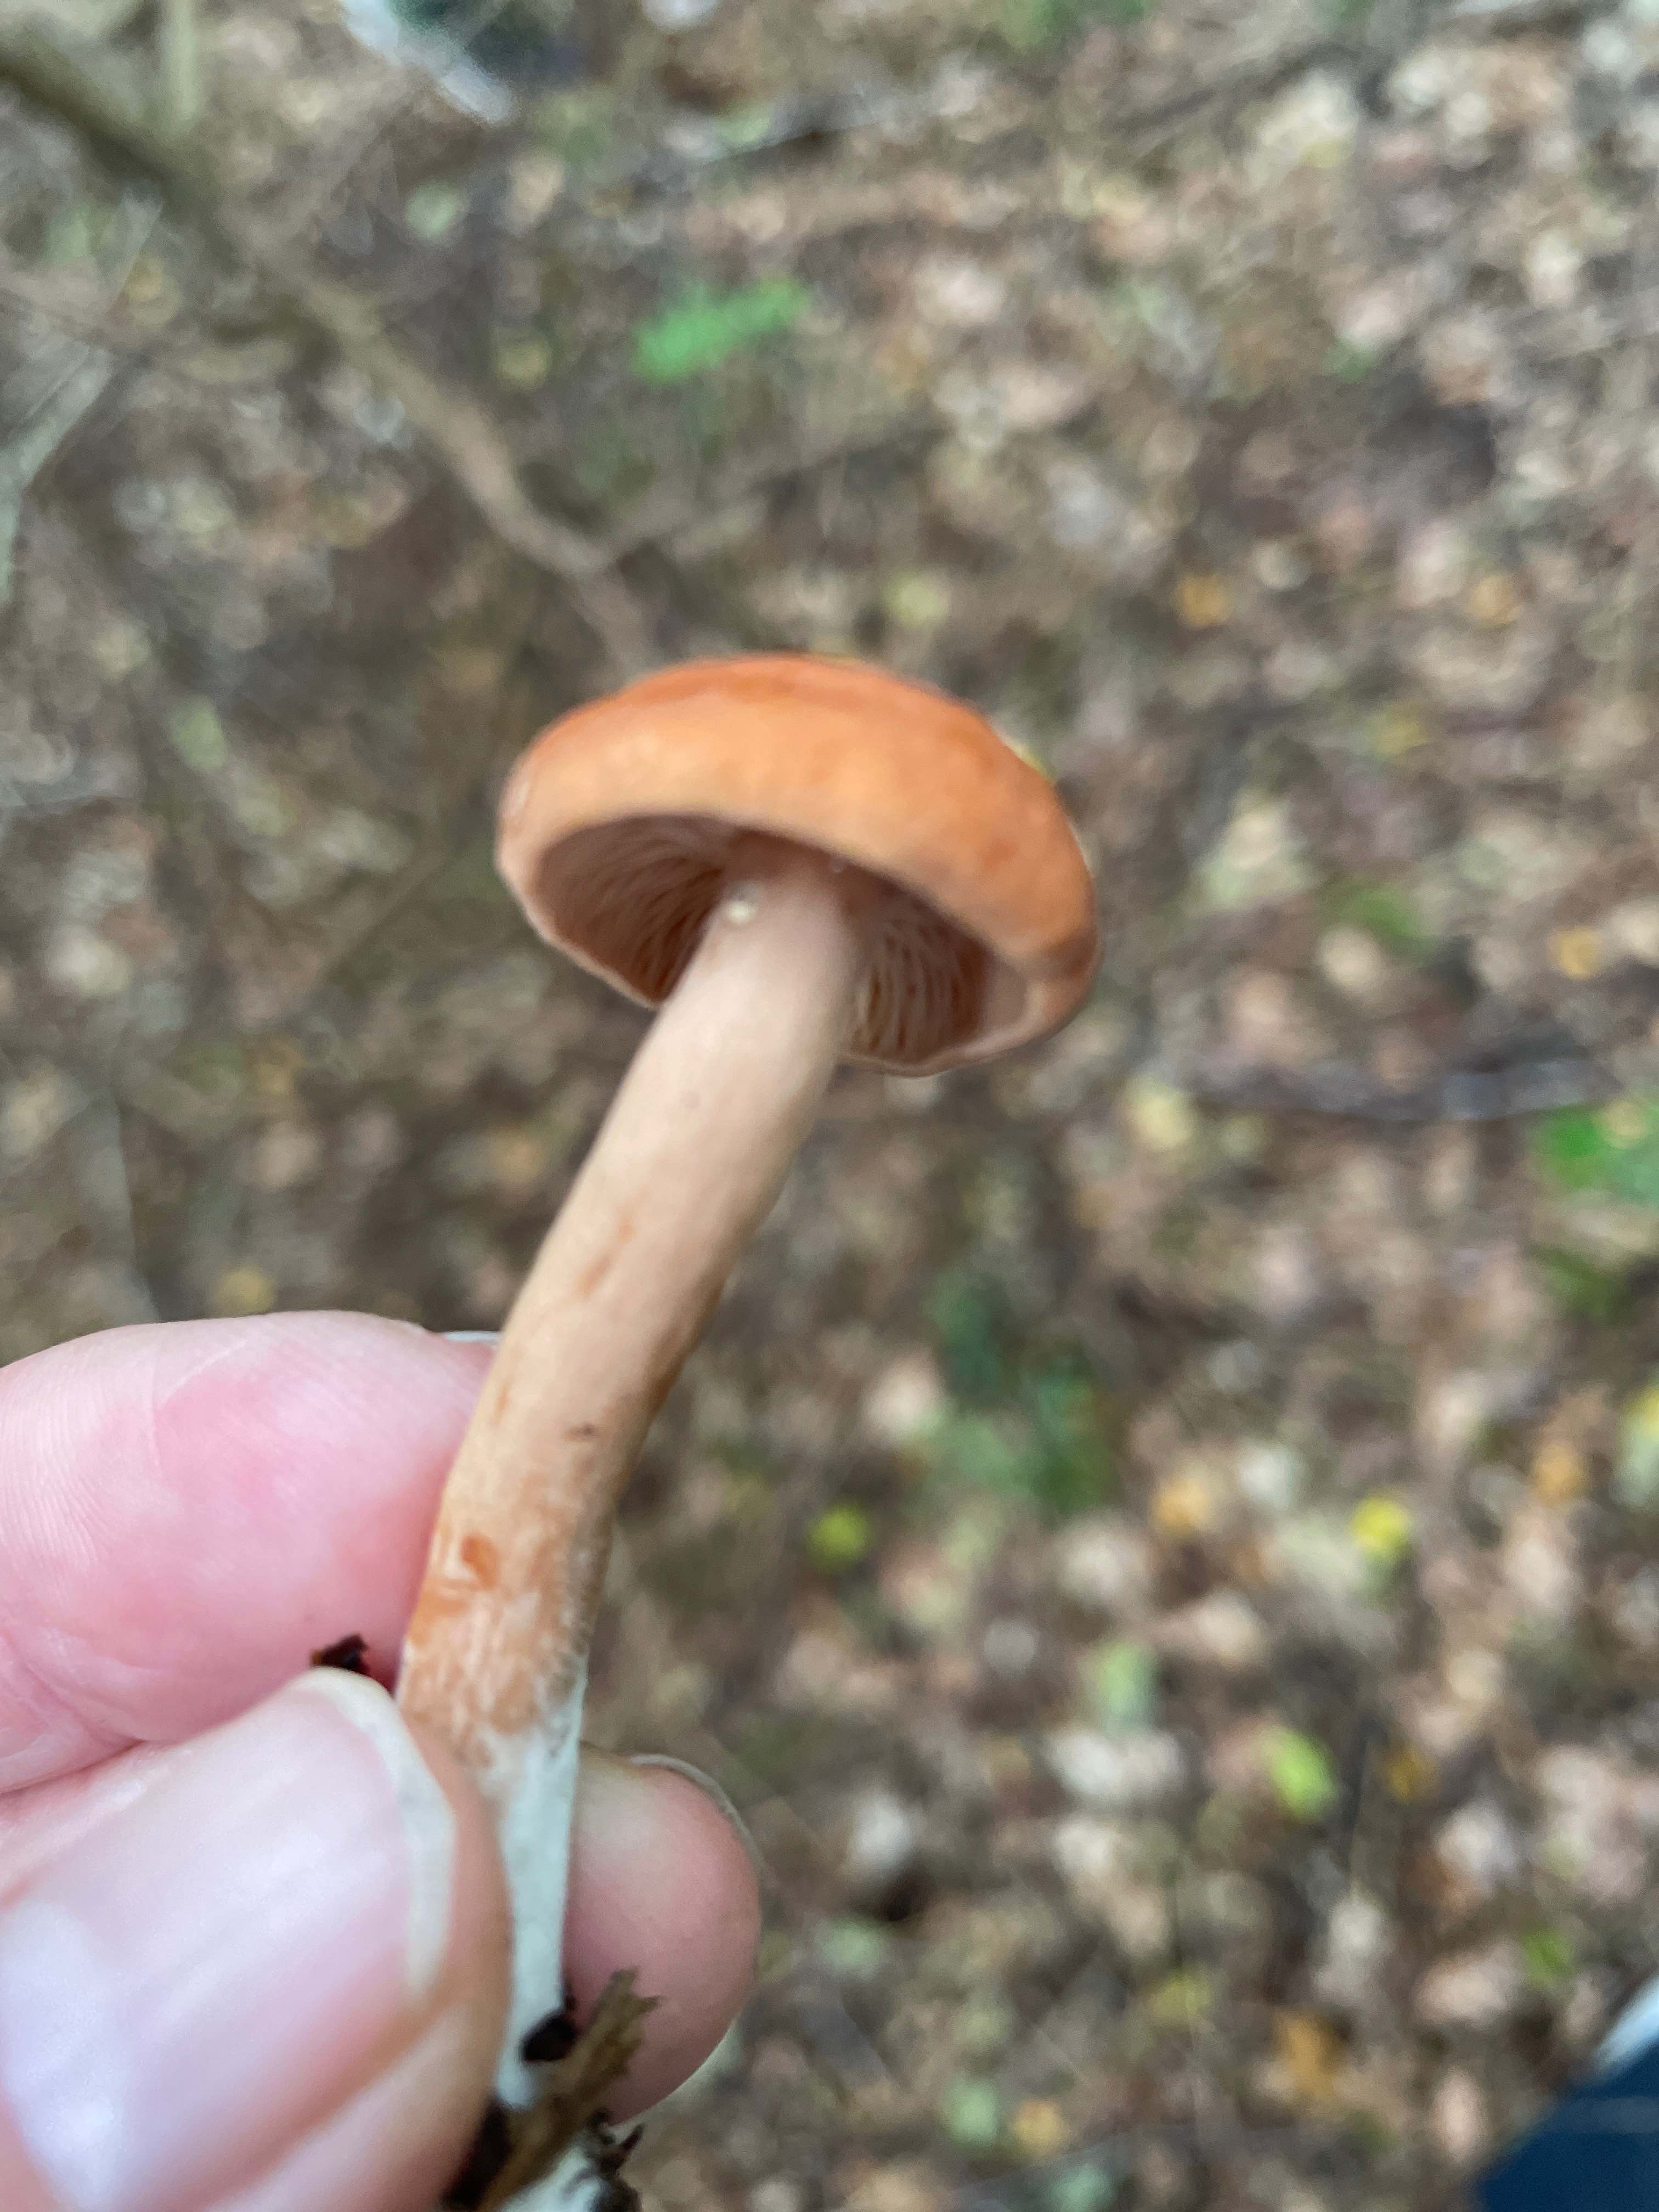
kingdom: Fungi
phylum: Basidiomycota
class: Agaricomycetes
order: Russulales
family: Russulaceae
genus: Lactarius
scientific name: Lactarius tabidus
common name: rynket mælkehat
